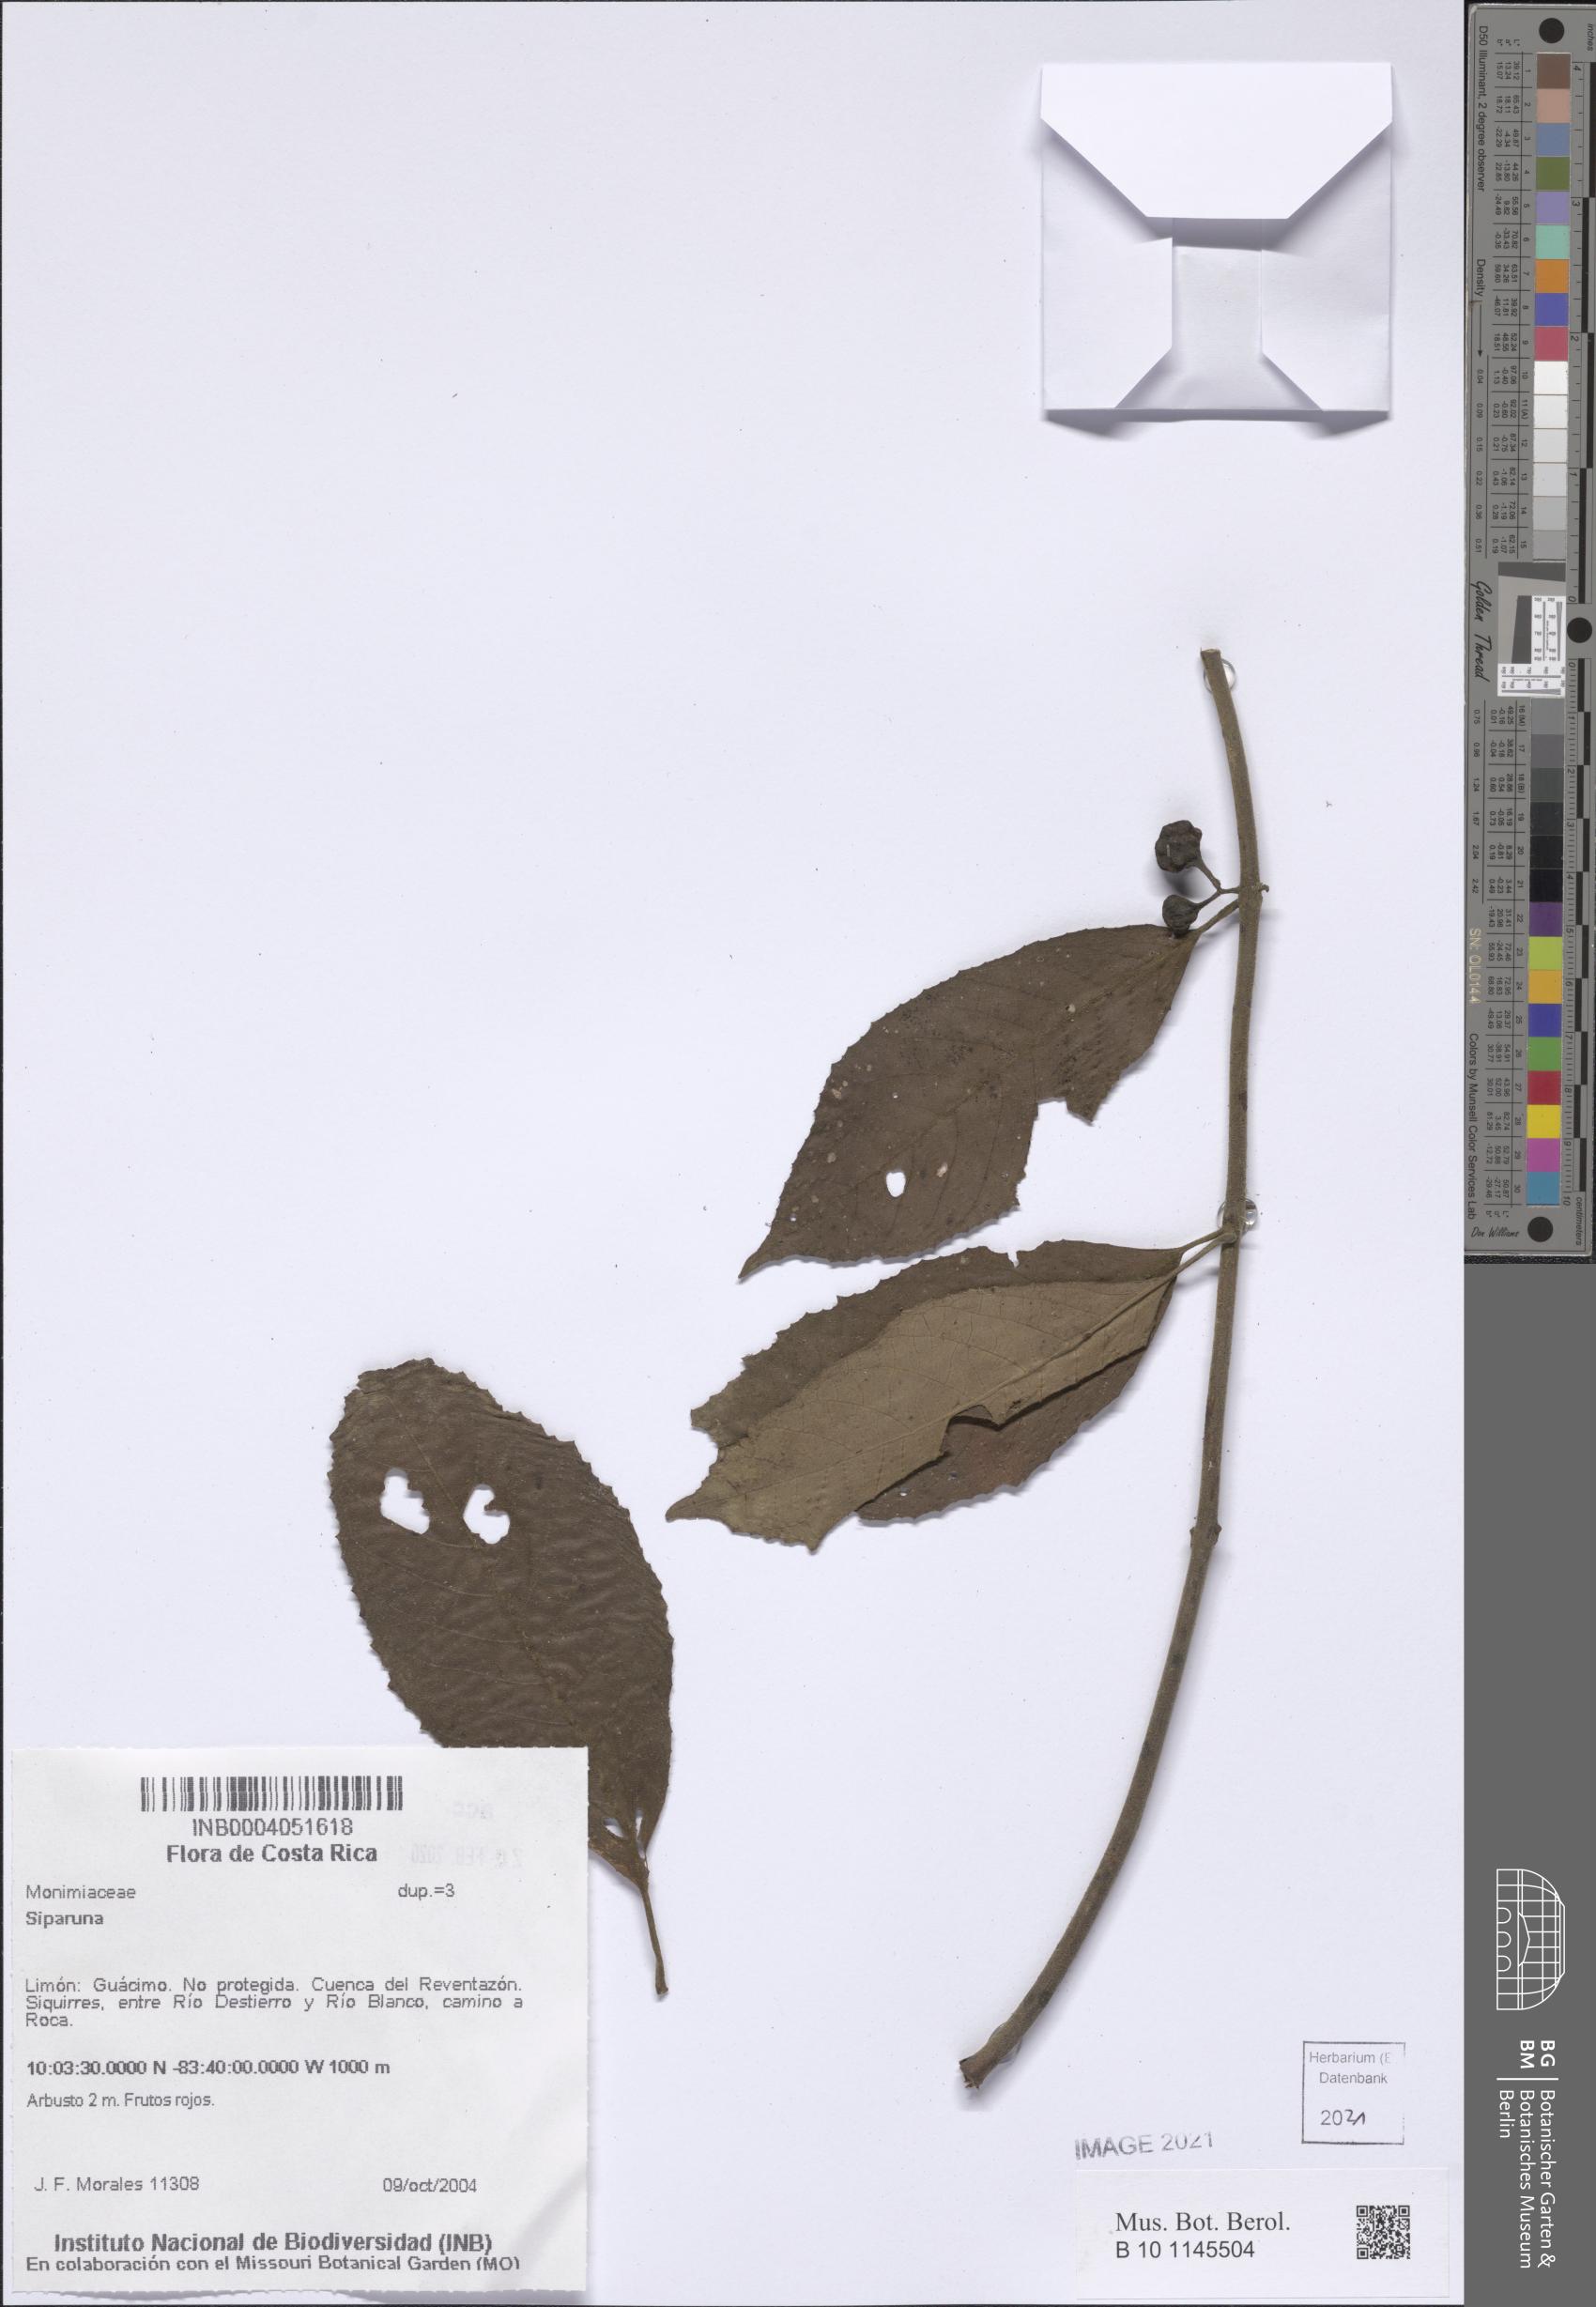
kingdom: Plantae
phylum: Tracheophyta
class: Magnoliopsida
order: Laurales
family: Siparunaceae
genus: Siparuna
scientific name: Siparuna
